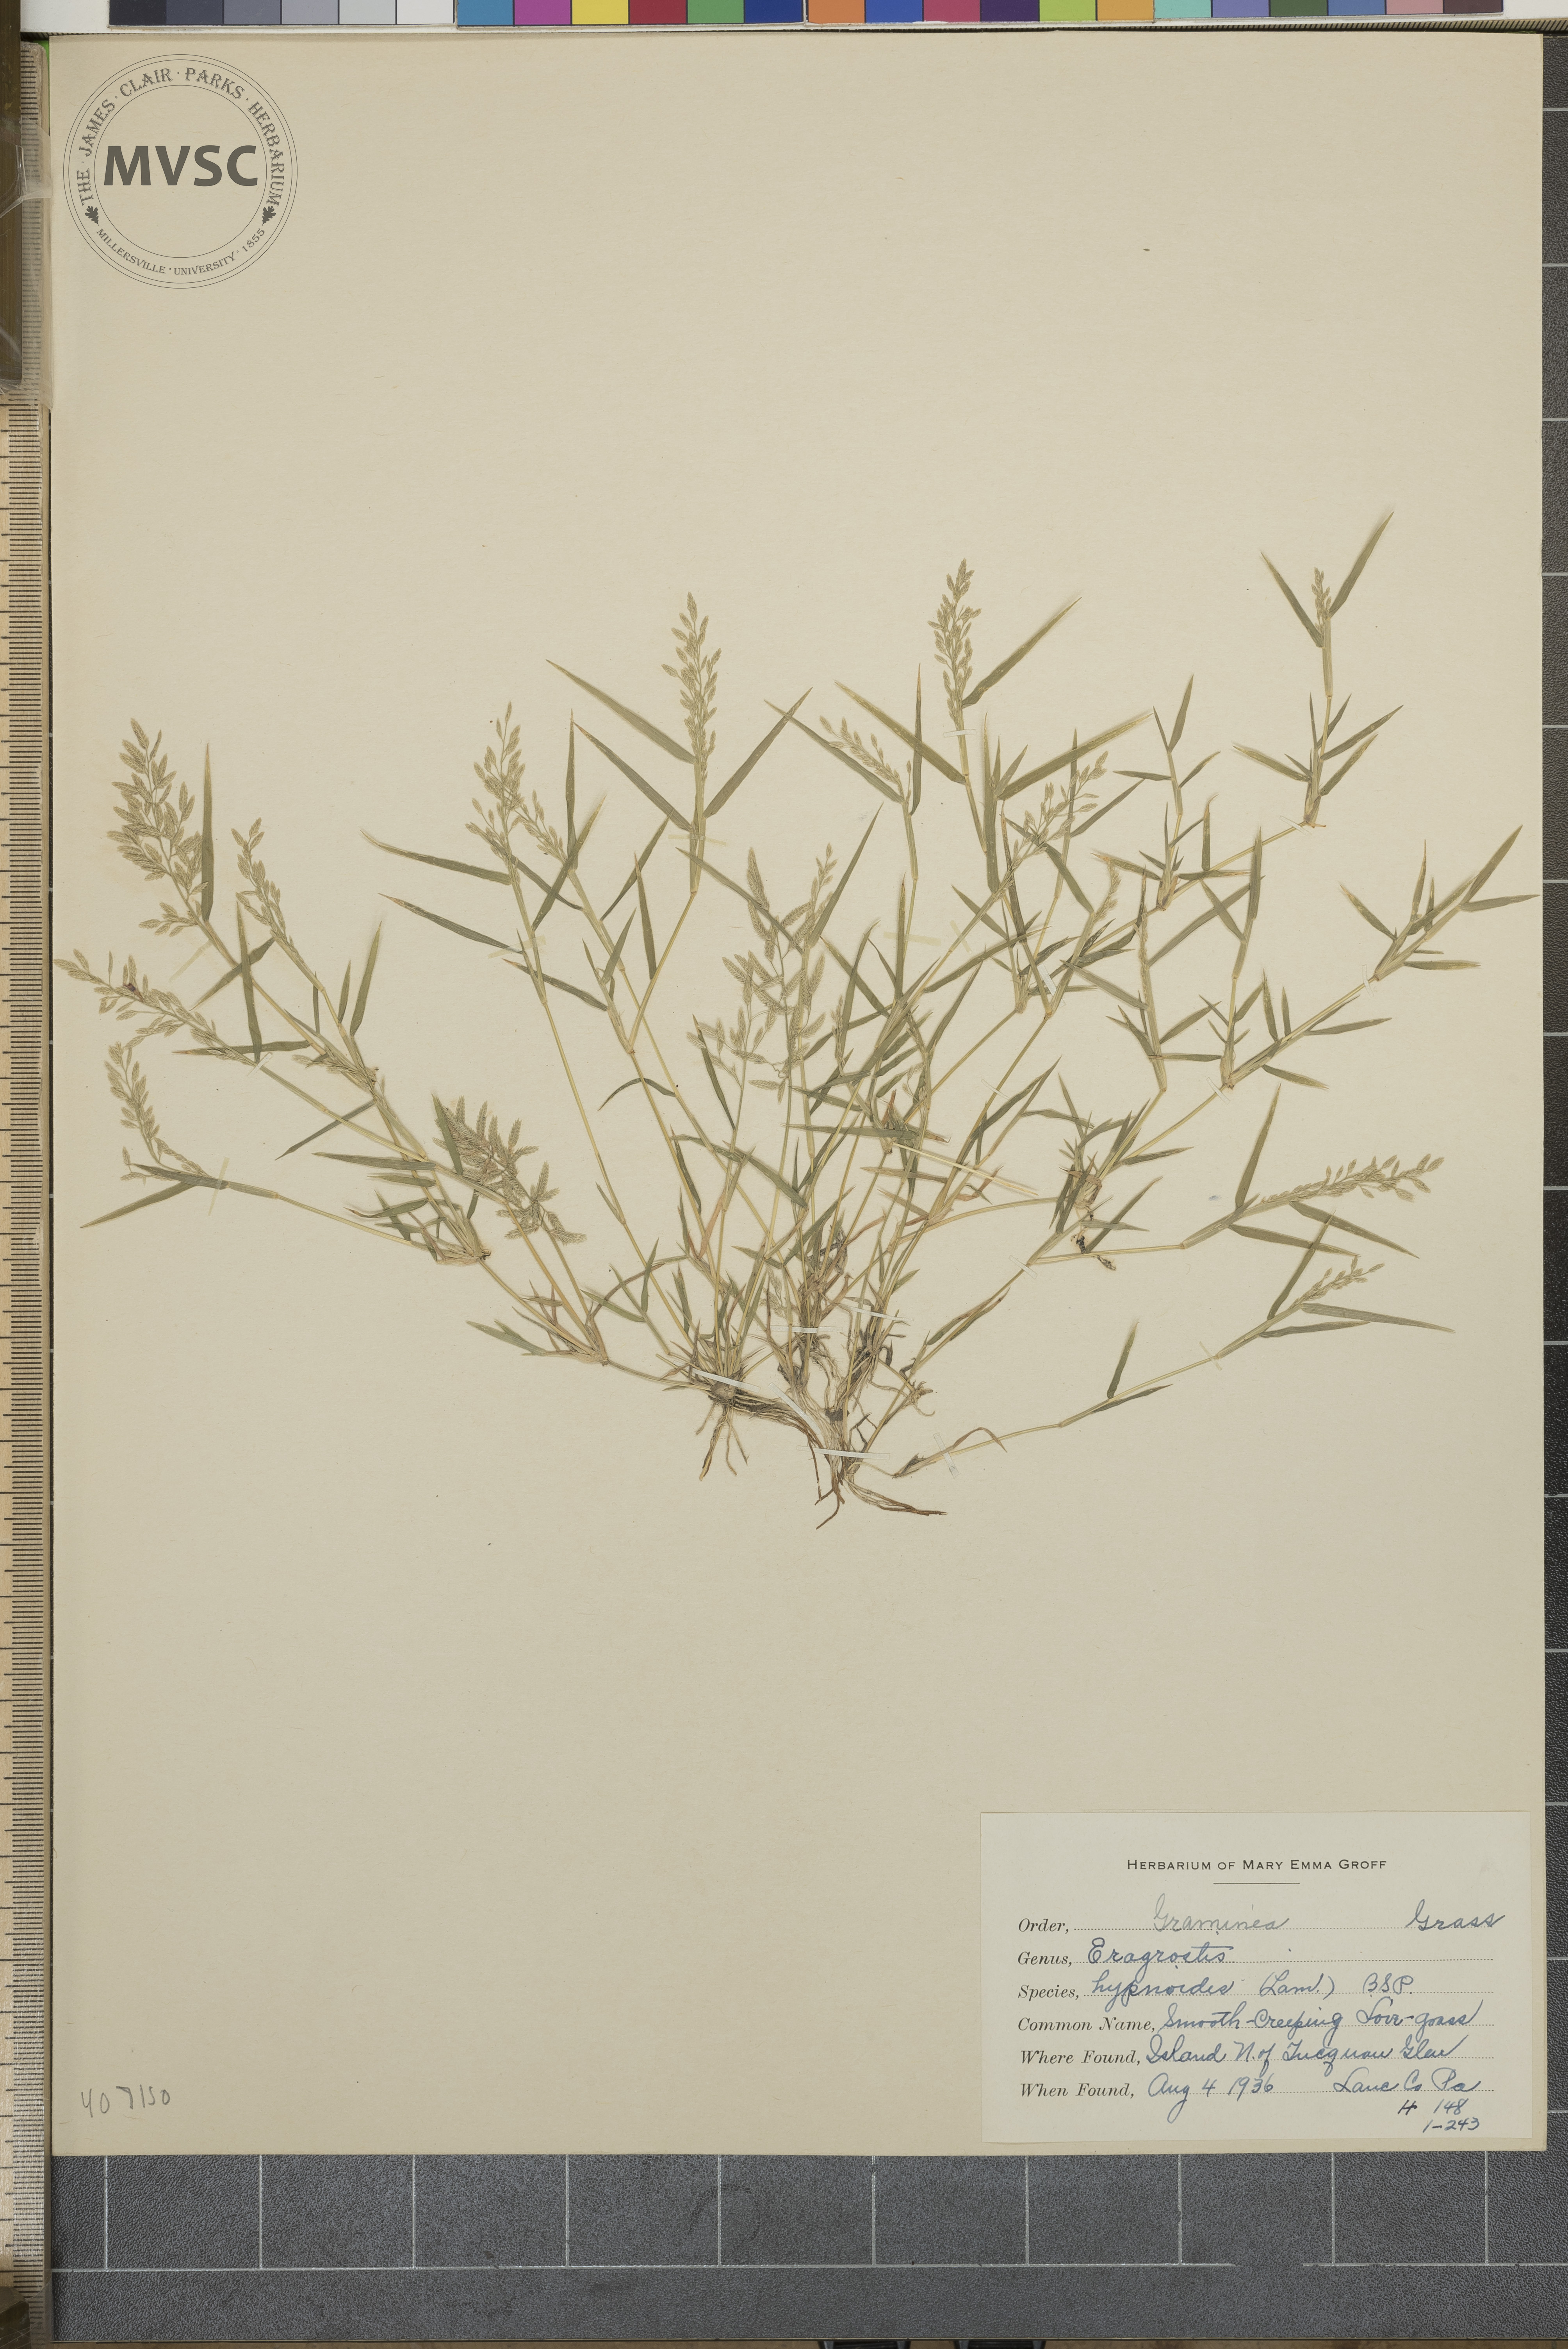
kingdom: Plantae
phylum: Tracheophyta
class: Liliopsida
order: Poales
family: Poaceae
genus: Eragrostis
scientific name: Eragrostis hypnoides
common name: Creeping love grass
